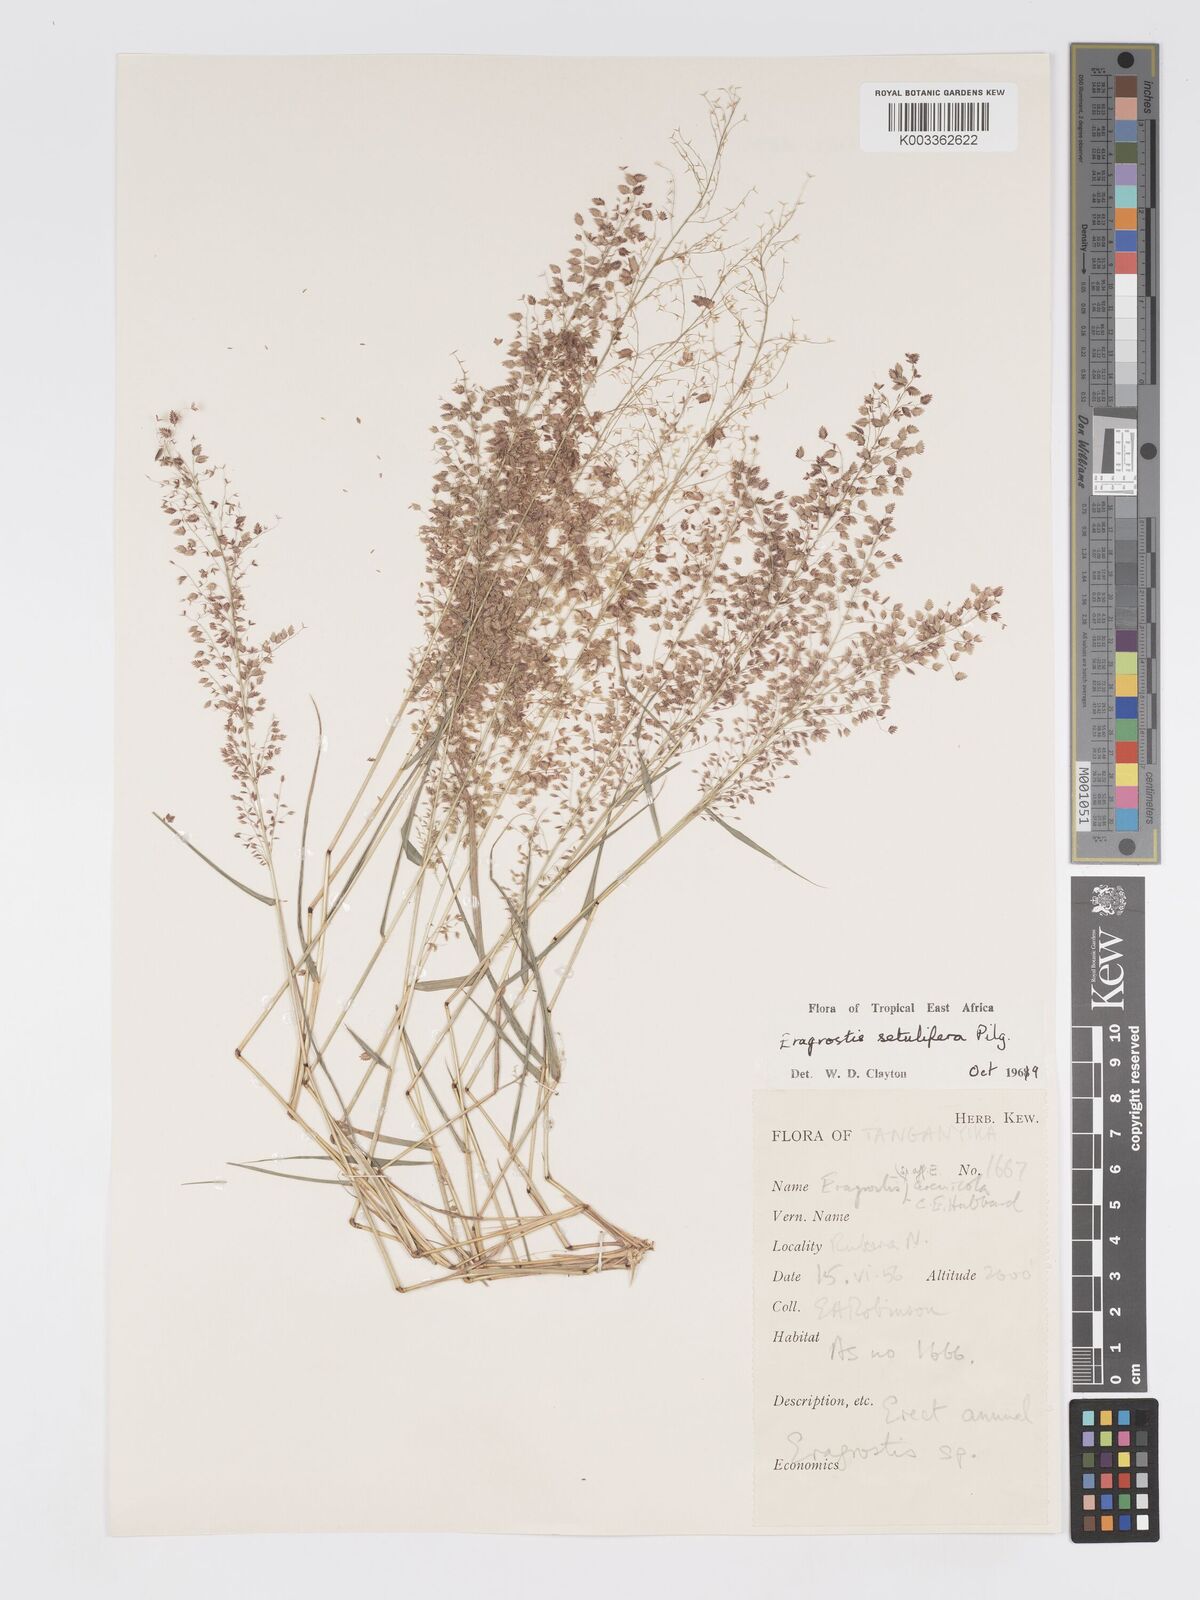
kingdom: Plantae
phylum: Tracheophyta
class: Liliopsida
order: Poales
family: Poaceae
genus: Eragrostis
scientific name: Eragrostis setulifera
